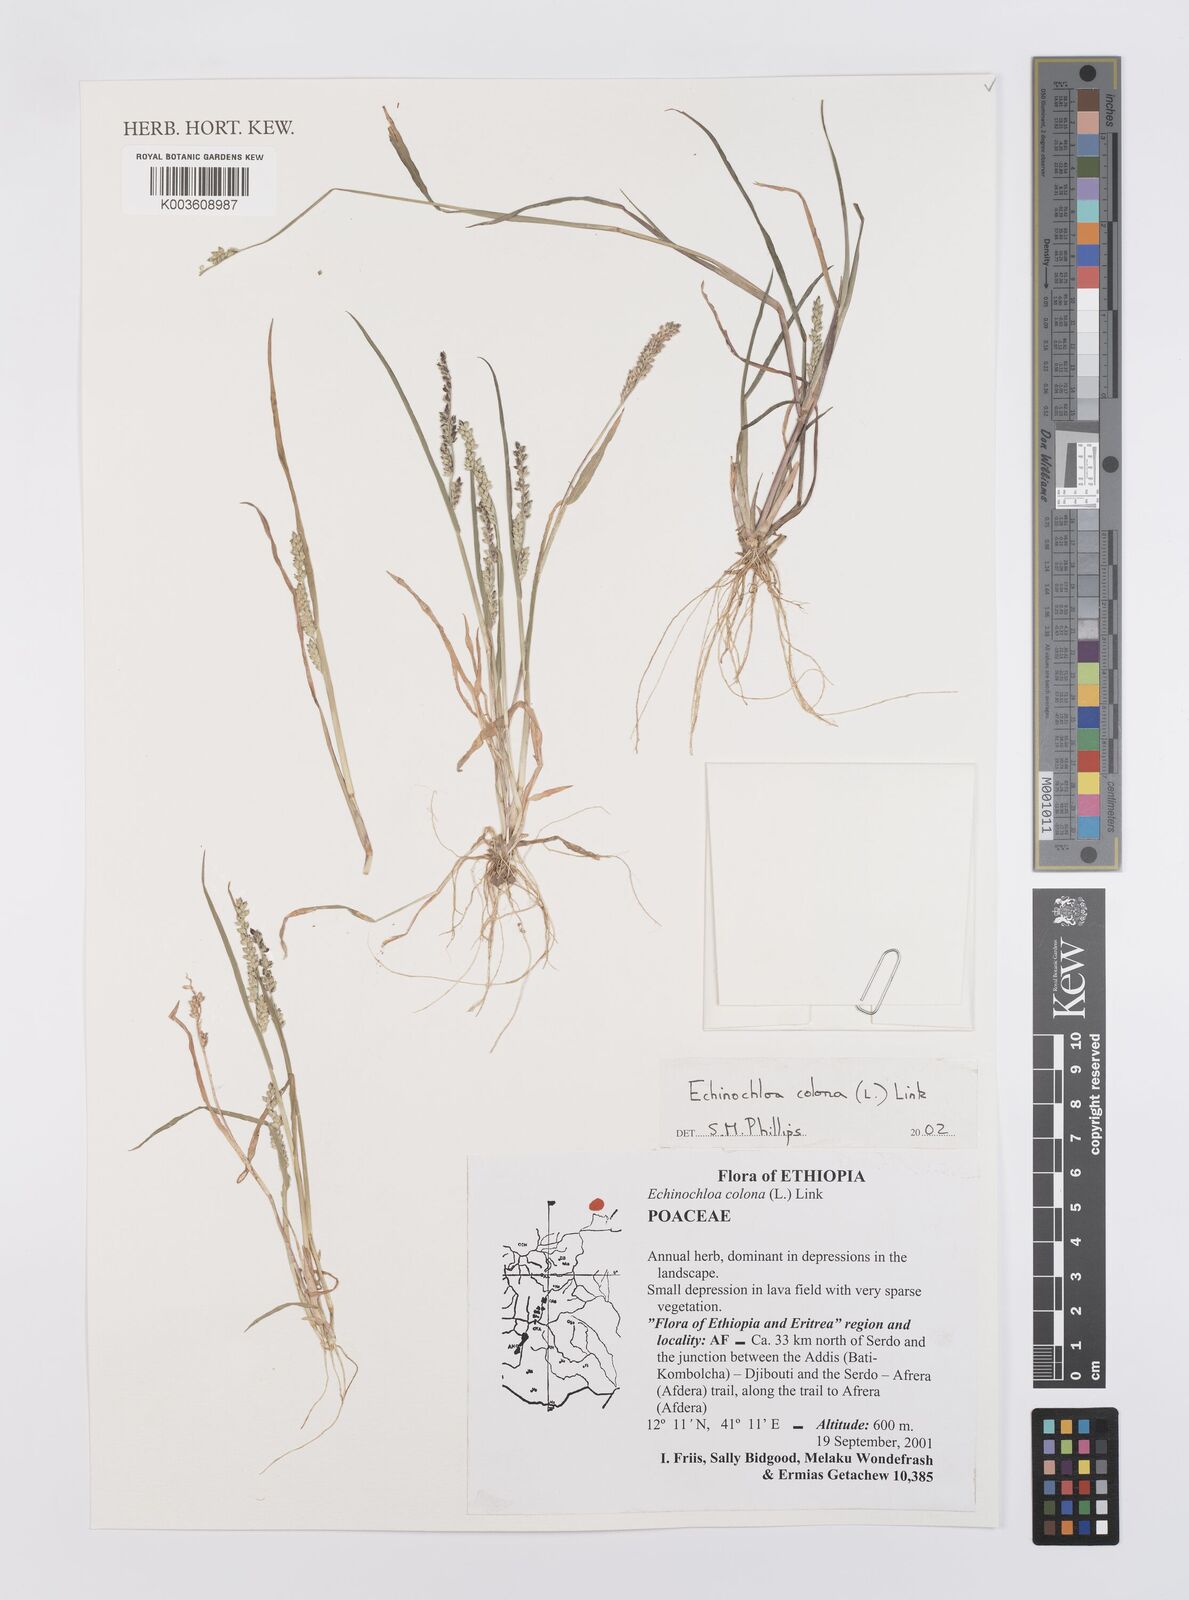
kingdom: Plantae
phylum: Tracheophyta
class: Liliopsida
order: Poales
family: Poaceae
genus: Echinochloa
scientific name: Echinochloa colonum
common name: Jungle rice
